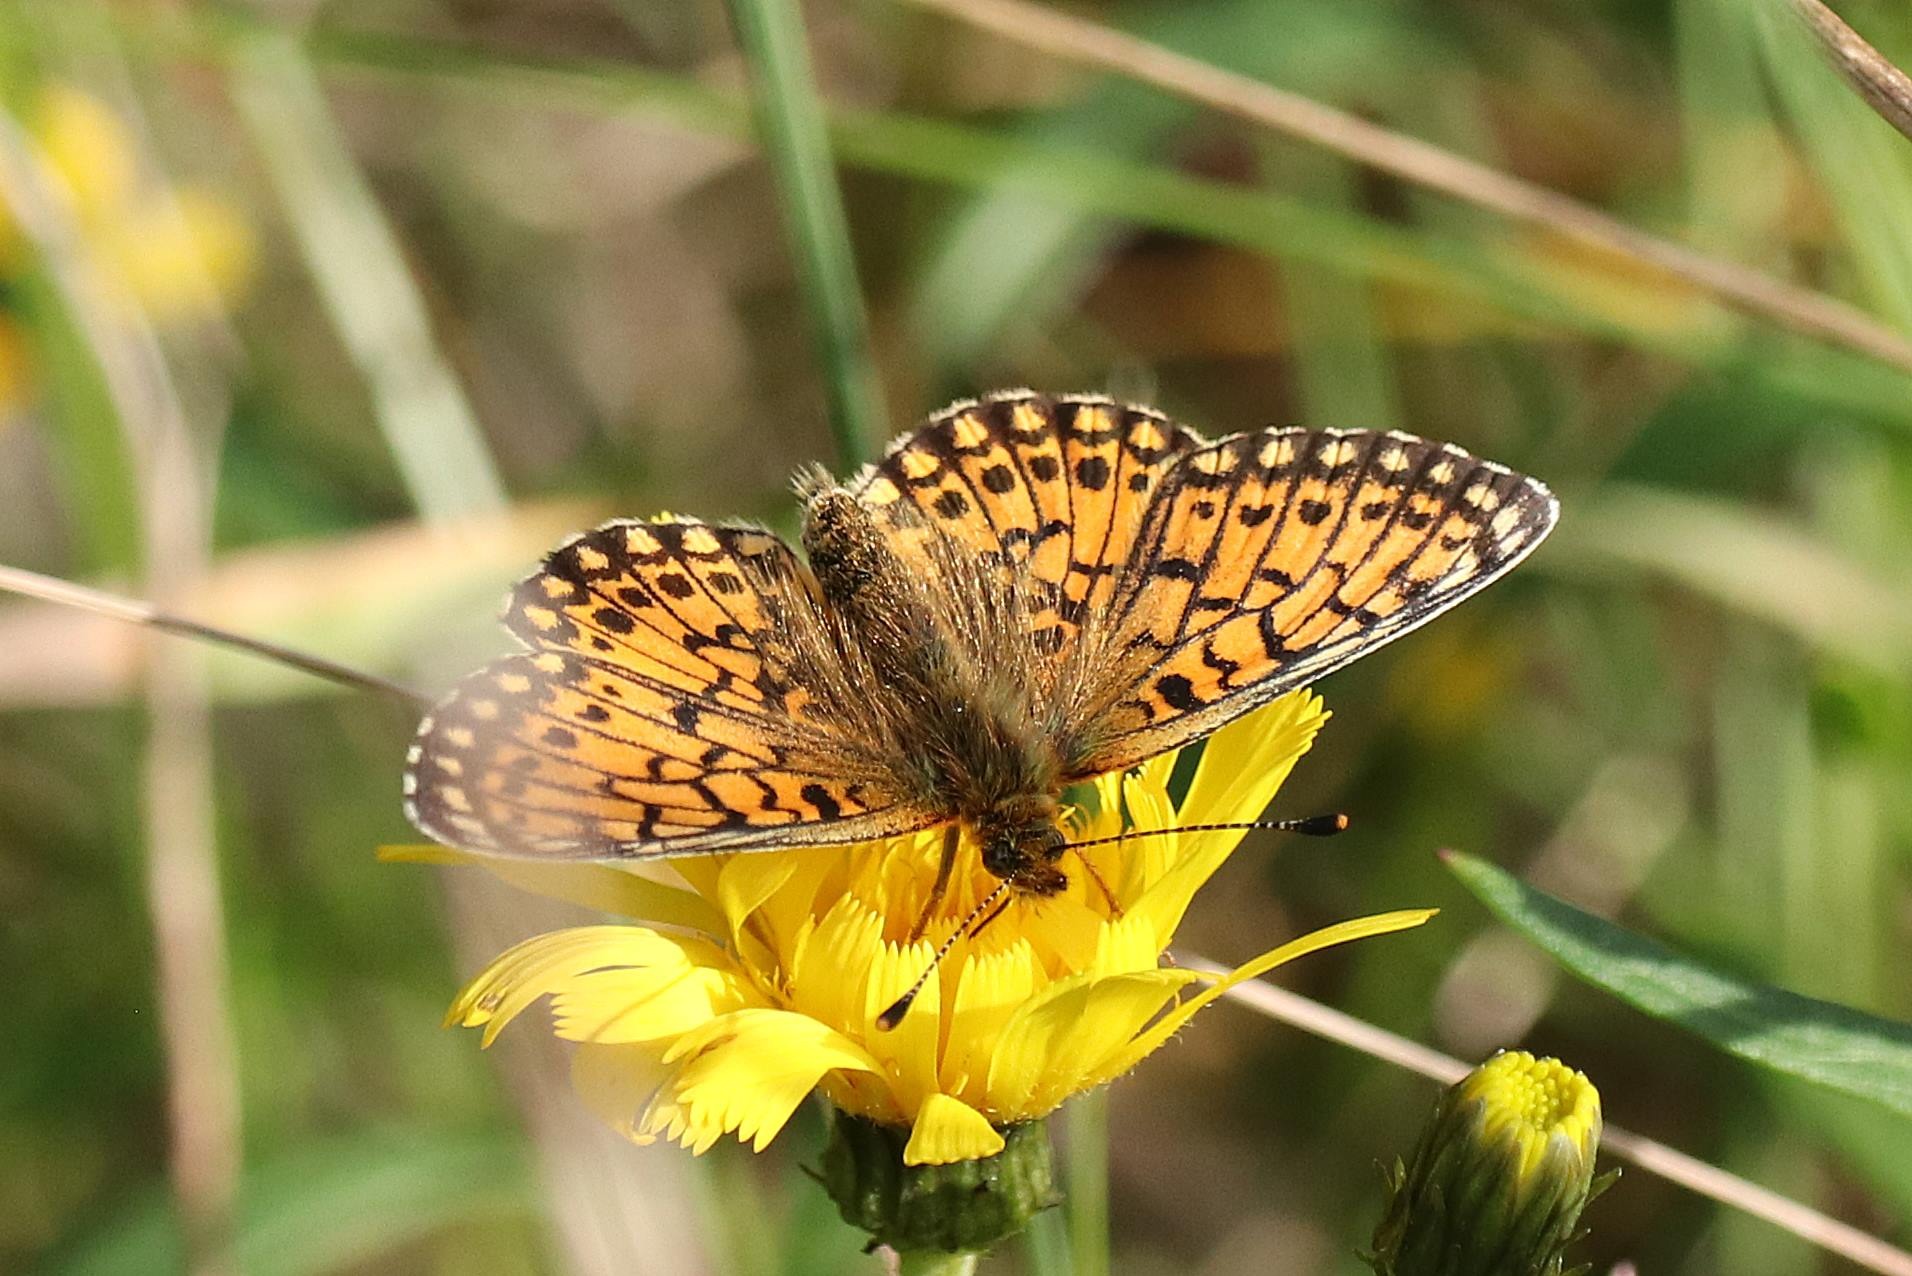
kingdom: Animalia
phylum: Arthropoda
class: Insecta
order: Lepidoptera
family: Nymphalidae
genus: Boloria
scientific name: Boloria selene
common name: Brunlig perlemorsommerfugl
